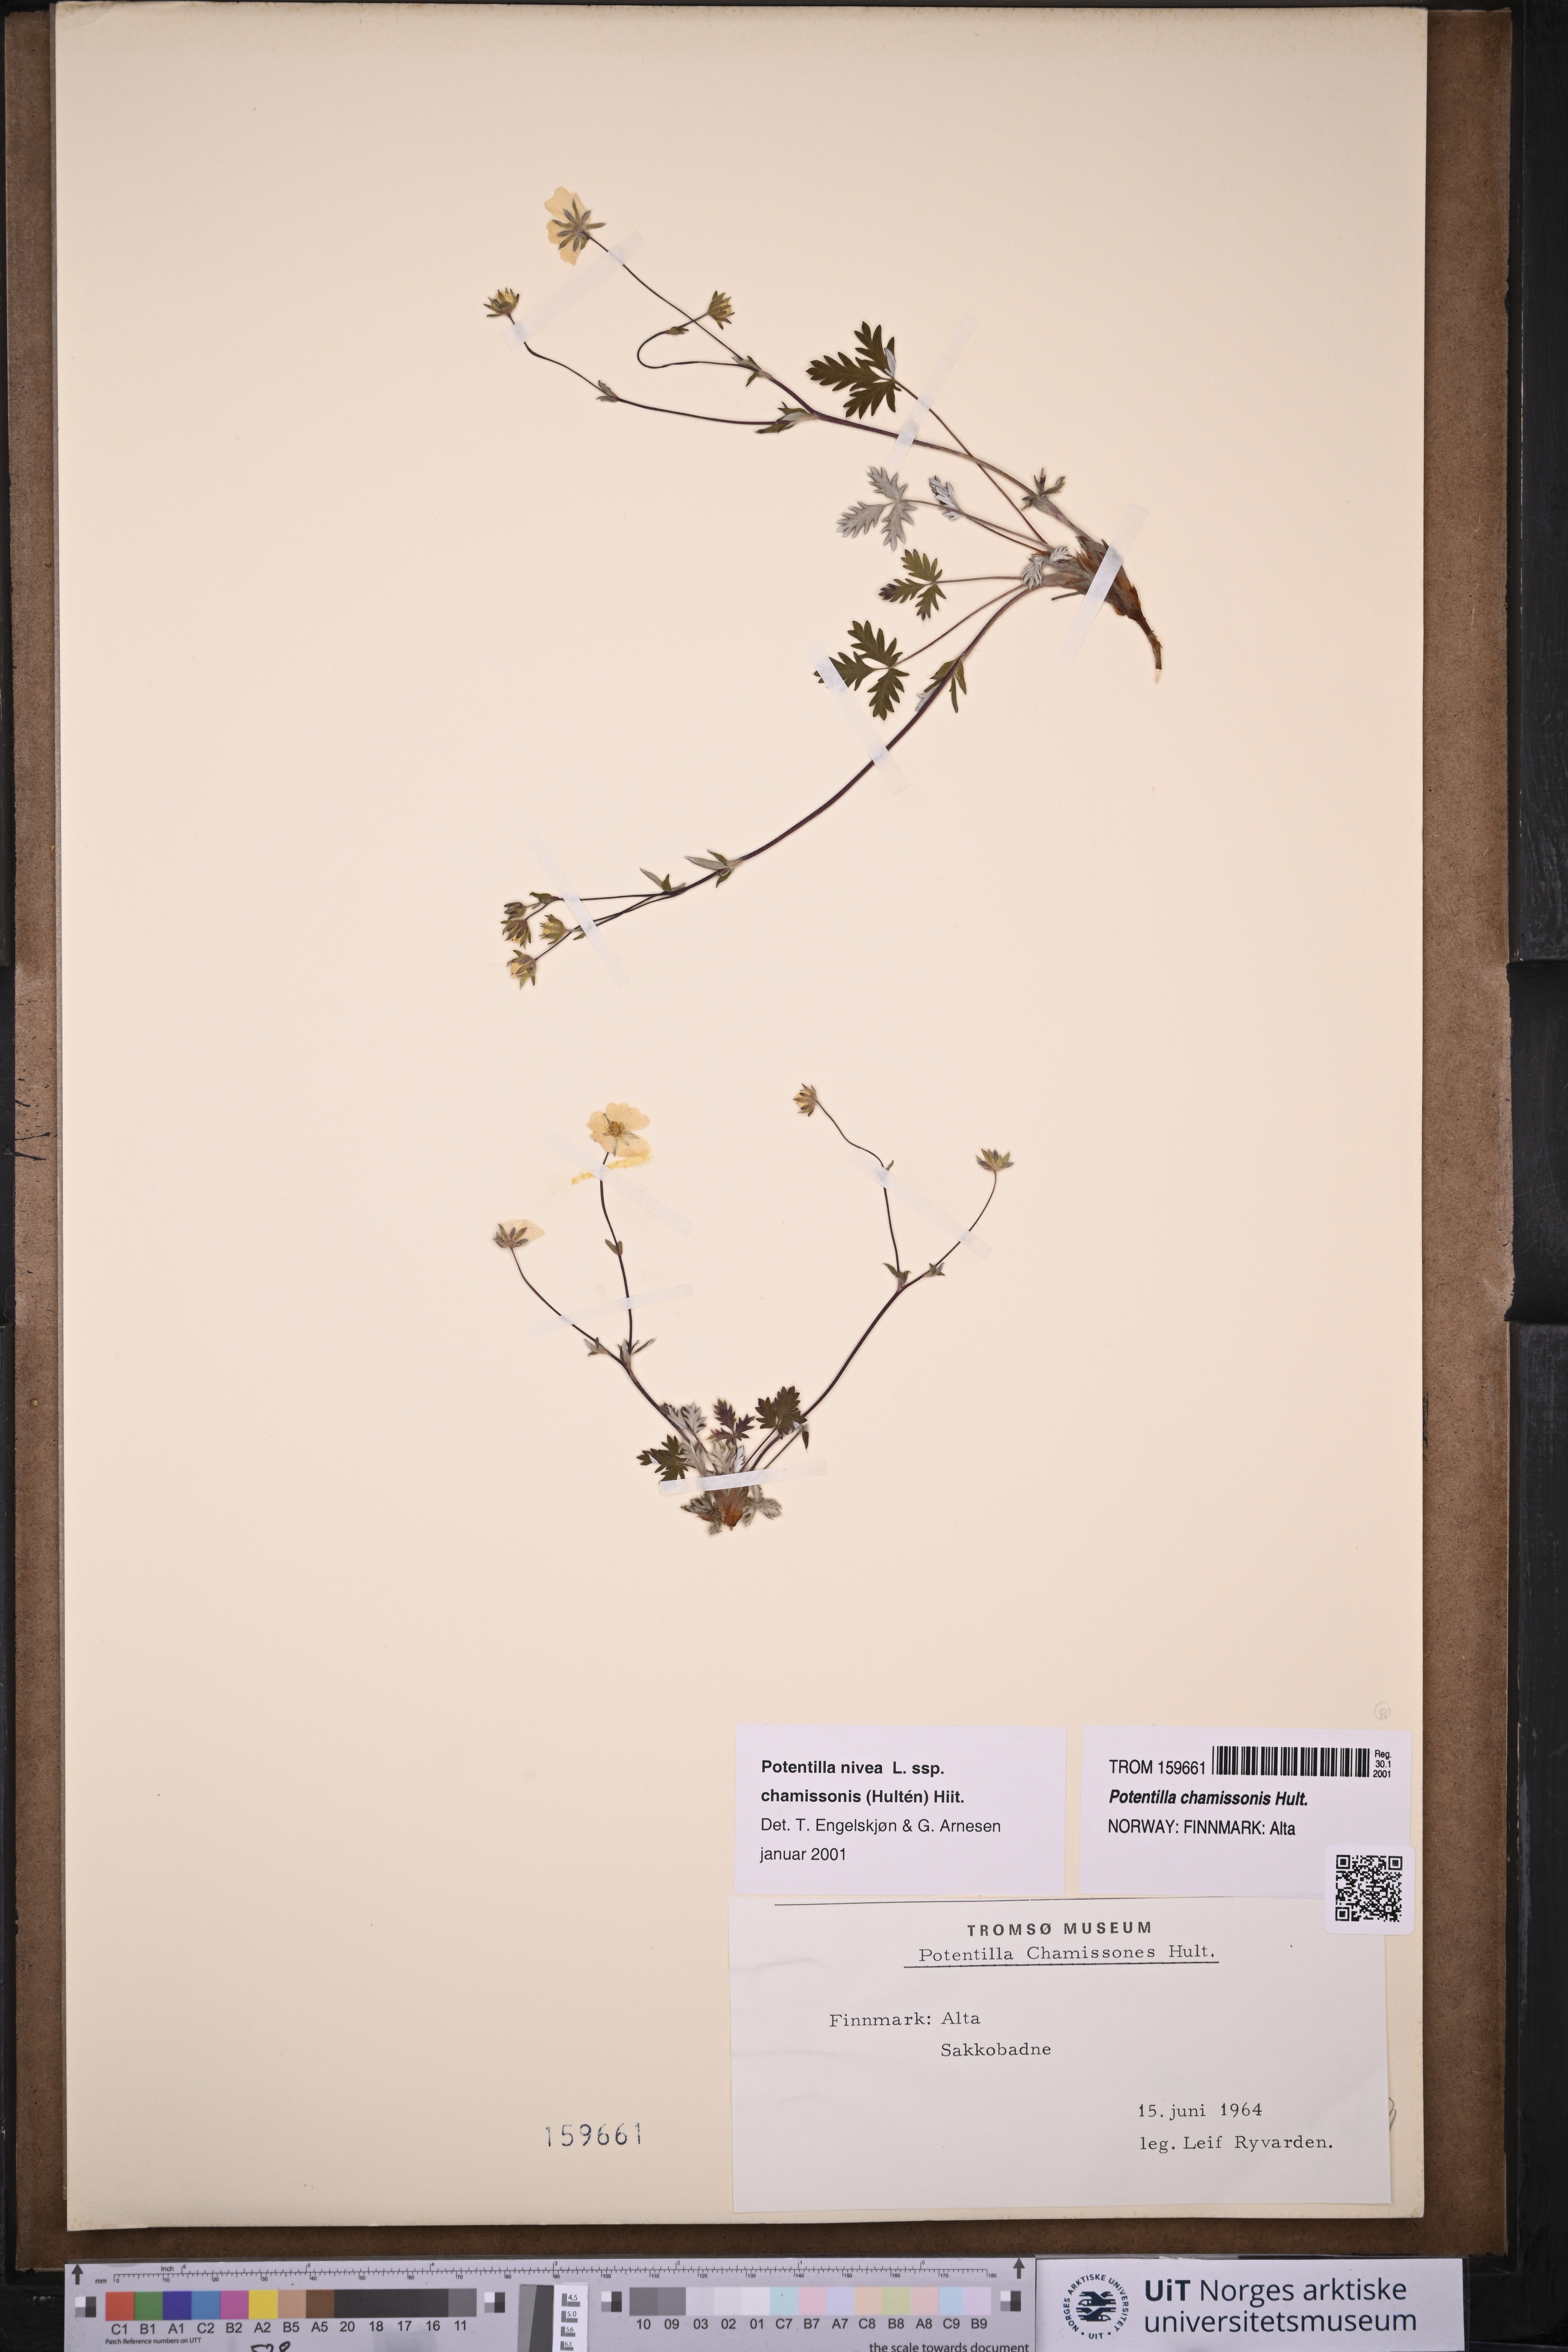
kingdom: Plantae
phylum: Tracheophyta
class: Magnoliopsida
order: Rosales
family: Rosaceae
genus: Potentilla
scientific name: Potentilla chamissonis
